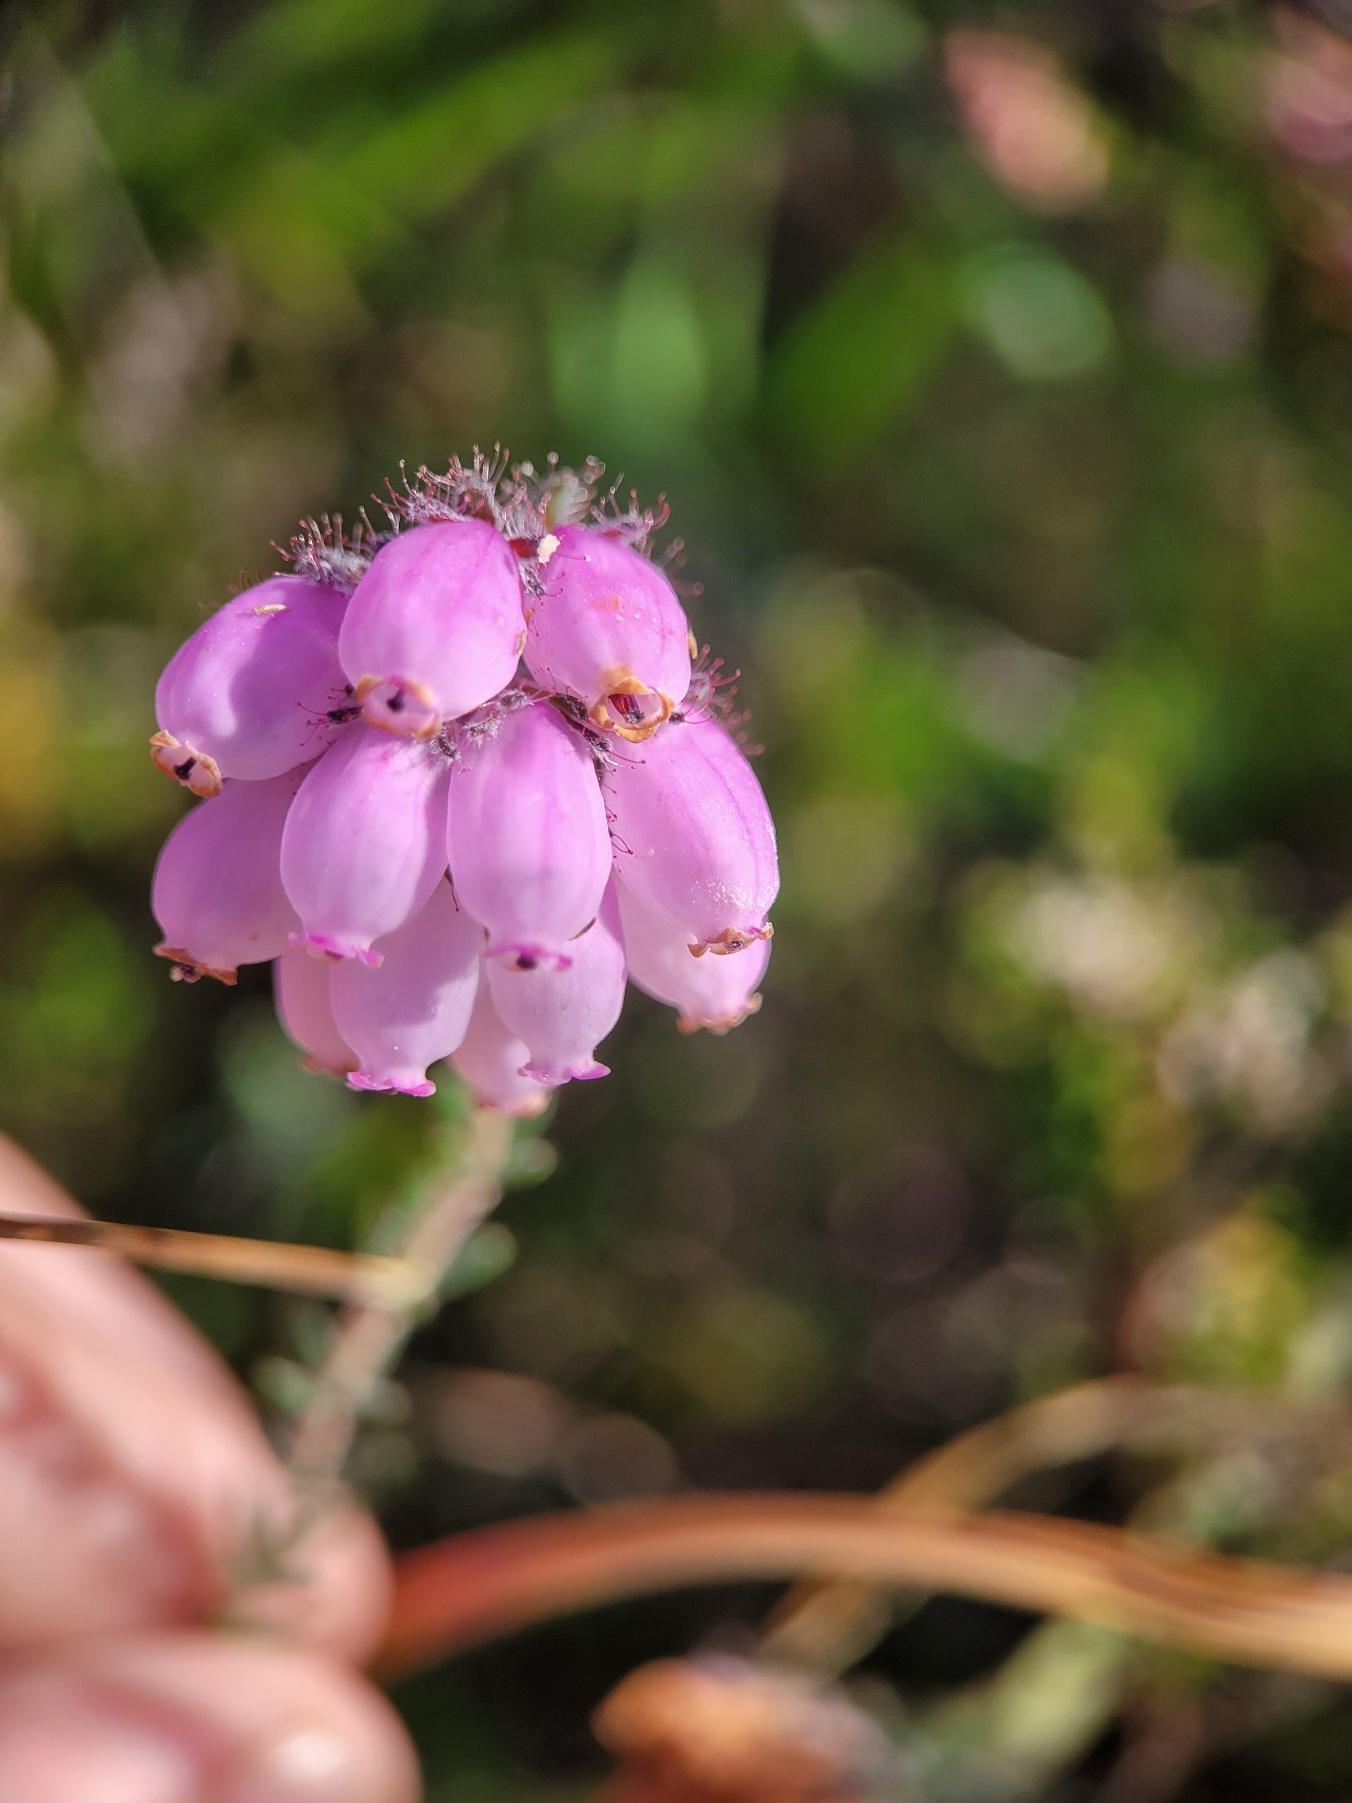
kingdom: Plantae
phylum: Tracheophyta
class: Magnoliopsida
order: Ericales
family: Ericaceae
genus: Erica
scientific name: Erica tetralix
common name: Klokkelyng
